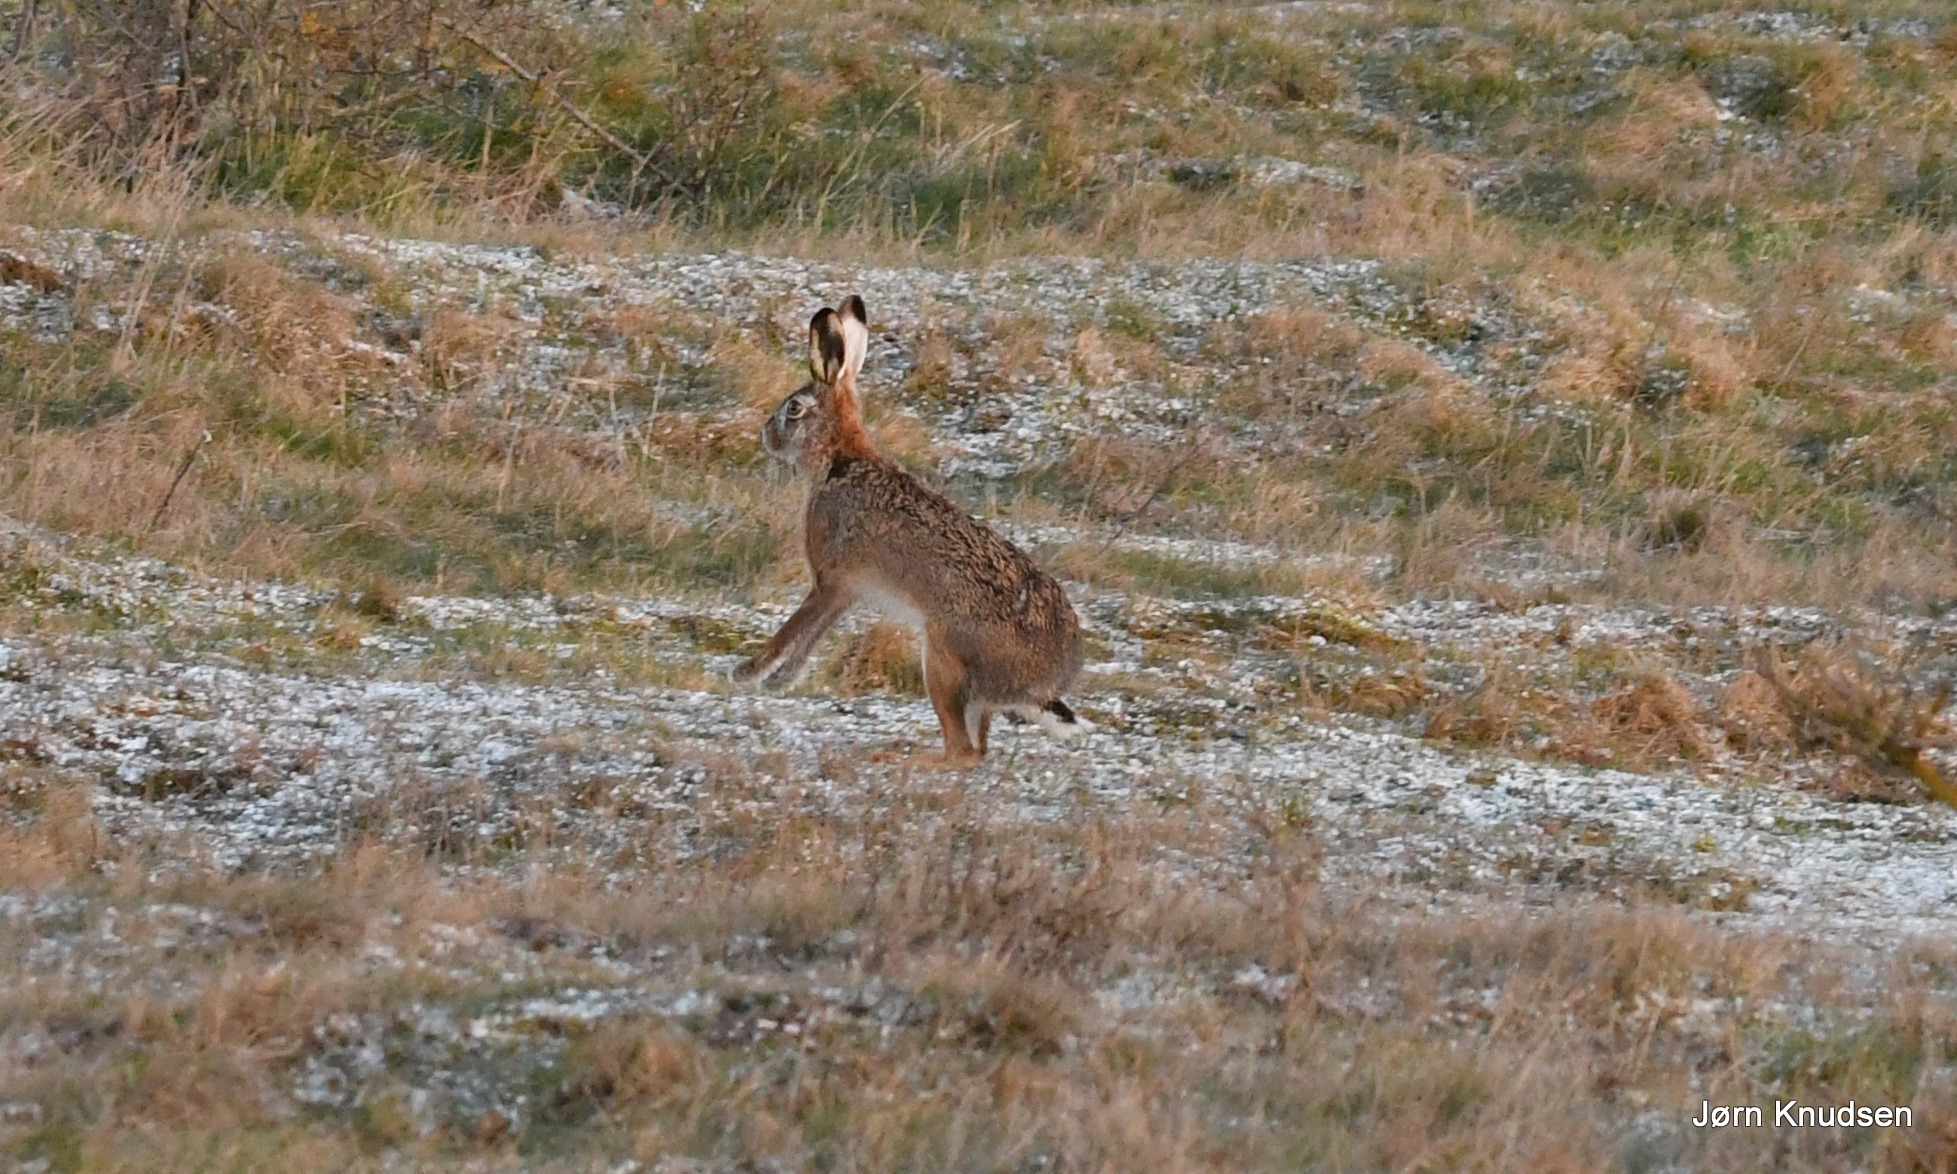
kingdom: Animalia
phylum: Chordata
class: Mammalia
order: Lagomorpha
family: Leporidae
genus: Lepus
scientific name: Lepus europaeus
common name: Hare
